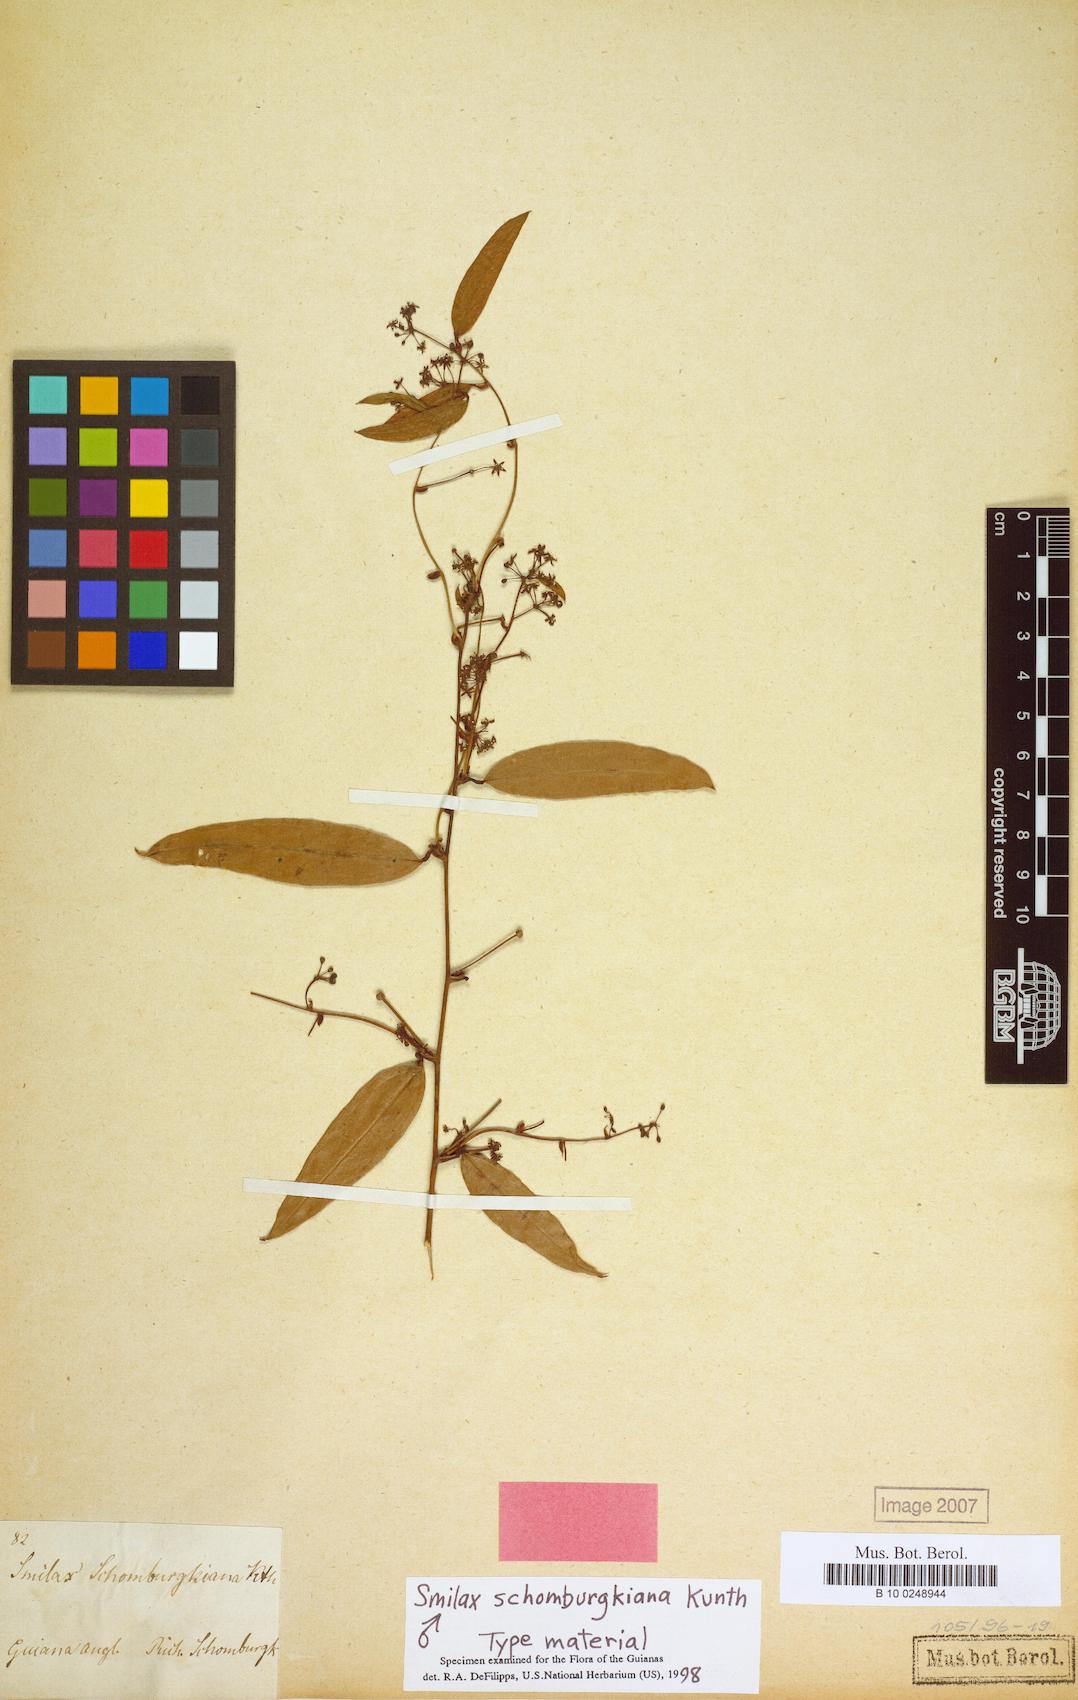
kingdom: Plantae
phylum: Tracheophyta
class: Liliopsida
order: Liliales
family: Smilacaceae
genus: Smilax
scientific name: Smilax schomburgkiana
